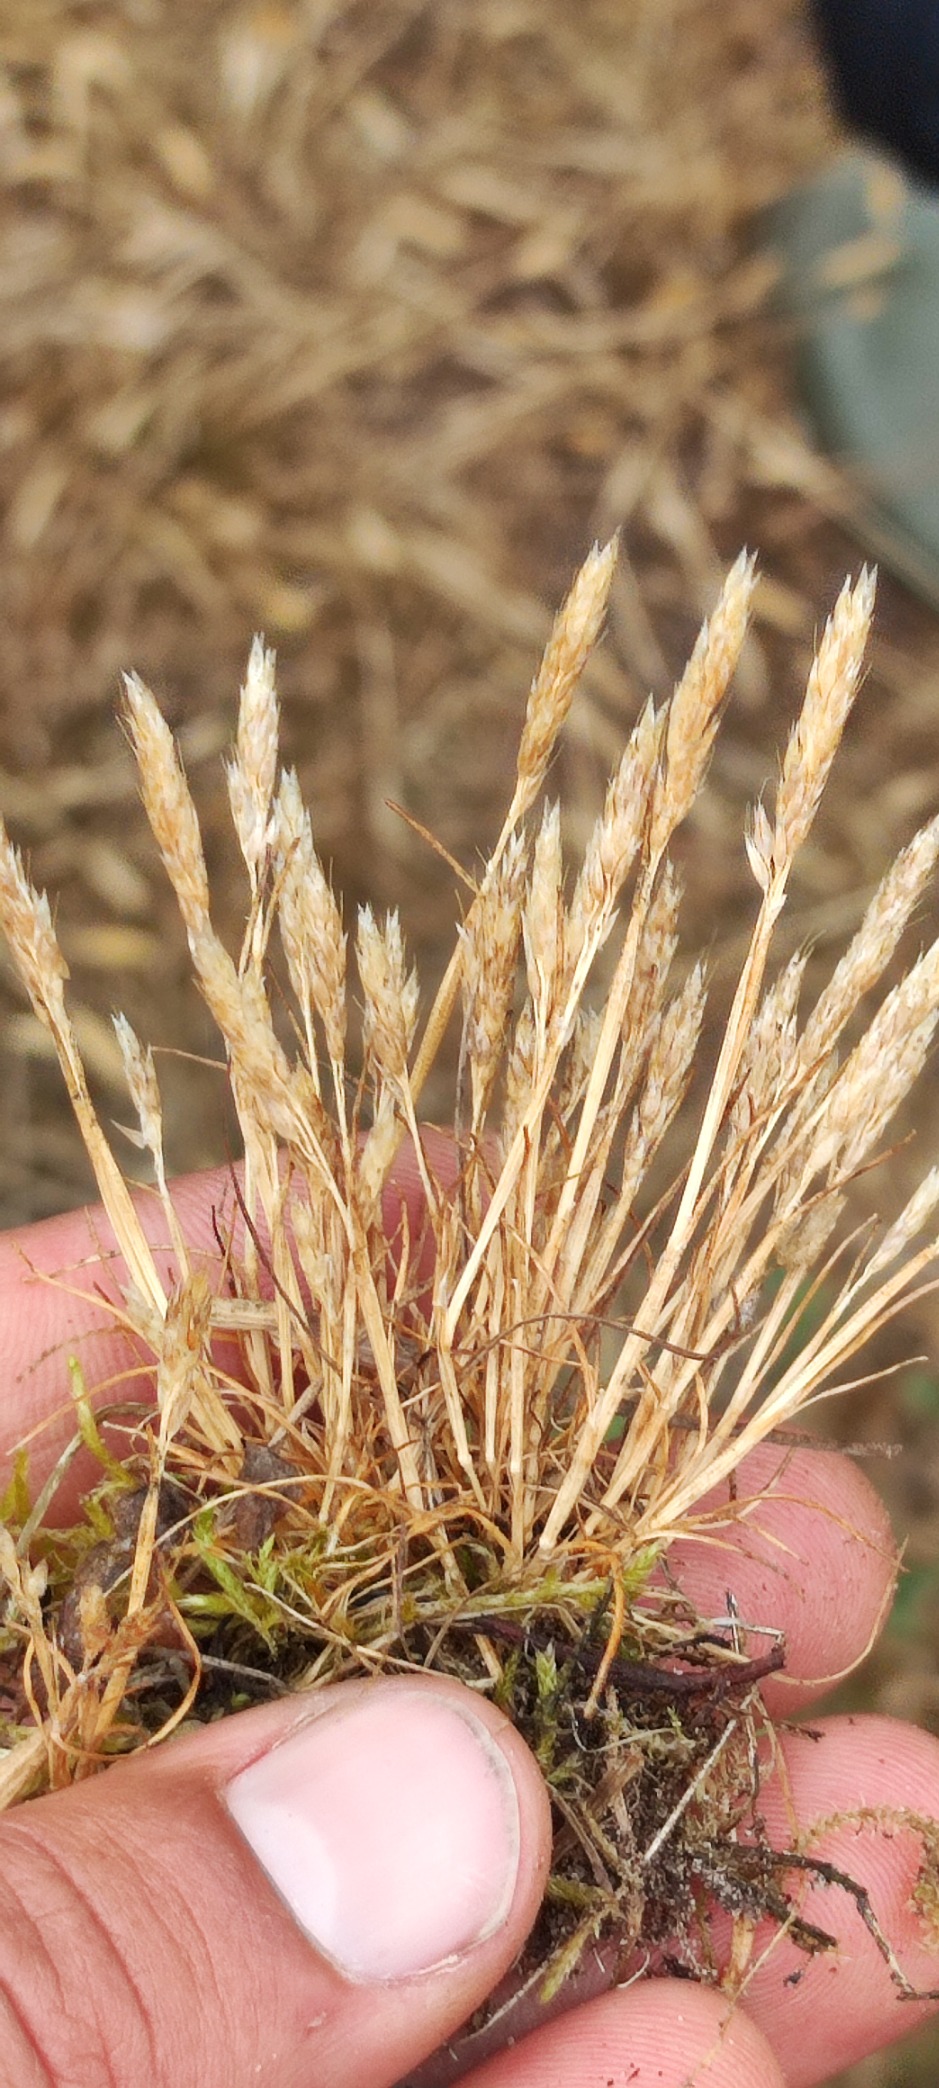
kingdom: Plantae
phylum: Tracheophyta
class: Liliopsida
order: Poales
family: Poaceae
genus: Aira
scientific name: Aira praecox
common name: Tidlig dværgbunke
